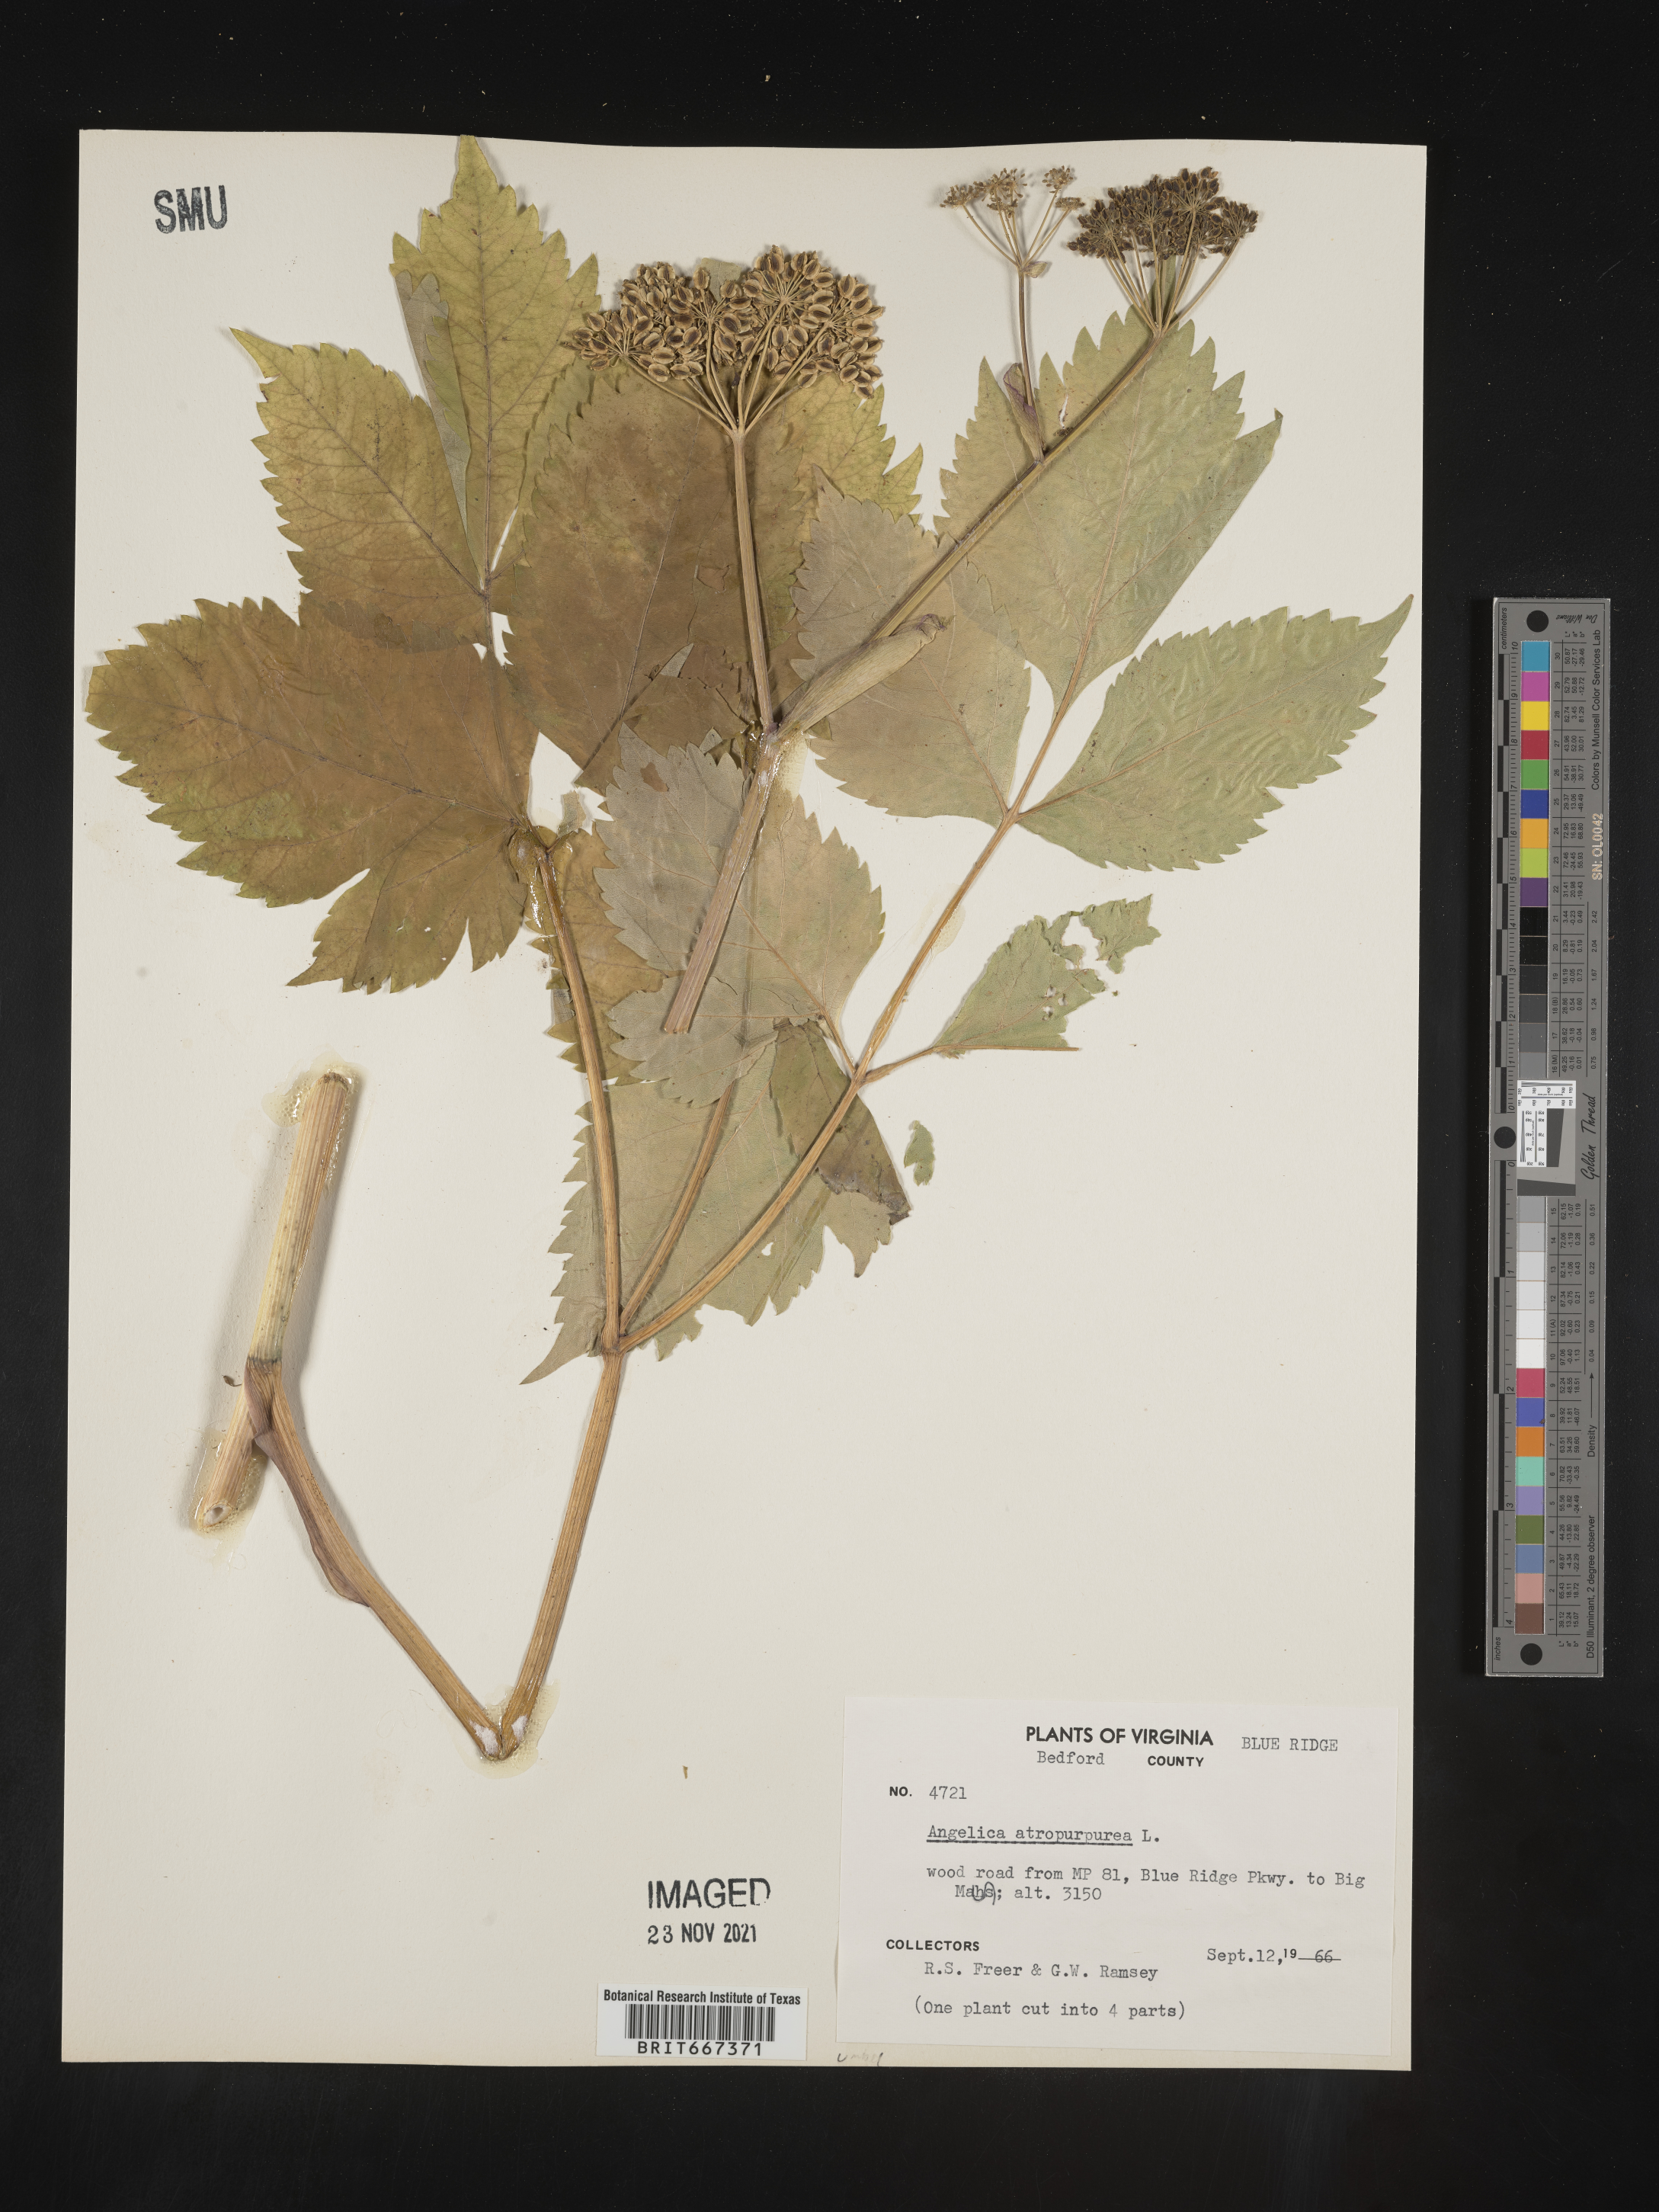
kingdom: Plantae
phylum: Tracheophyta
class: Magnoliopsida
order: Apiales
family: Apiaceae
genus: Angelica
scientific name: Angelica atropurpurea
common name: Great angelica
